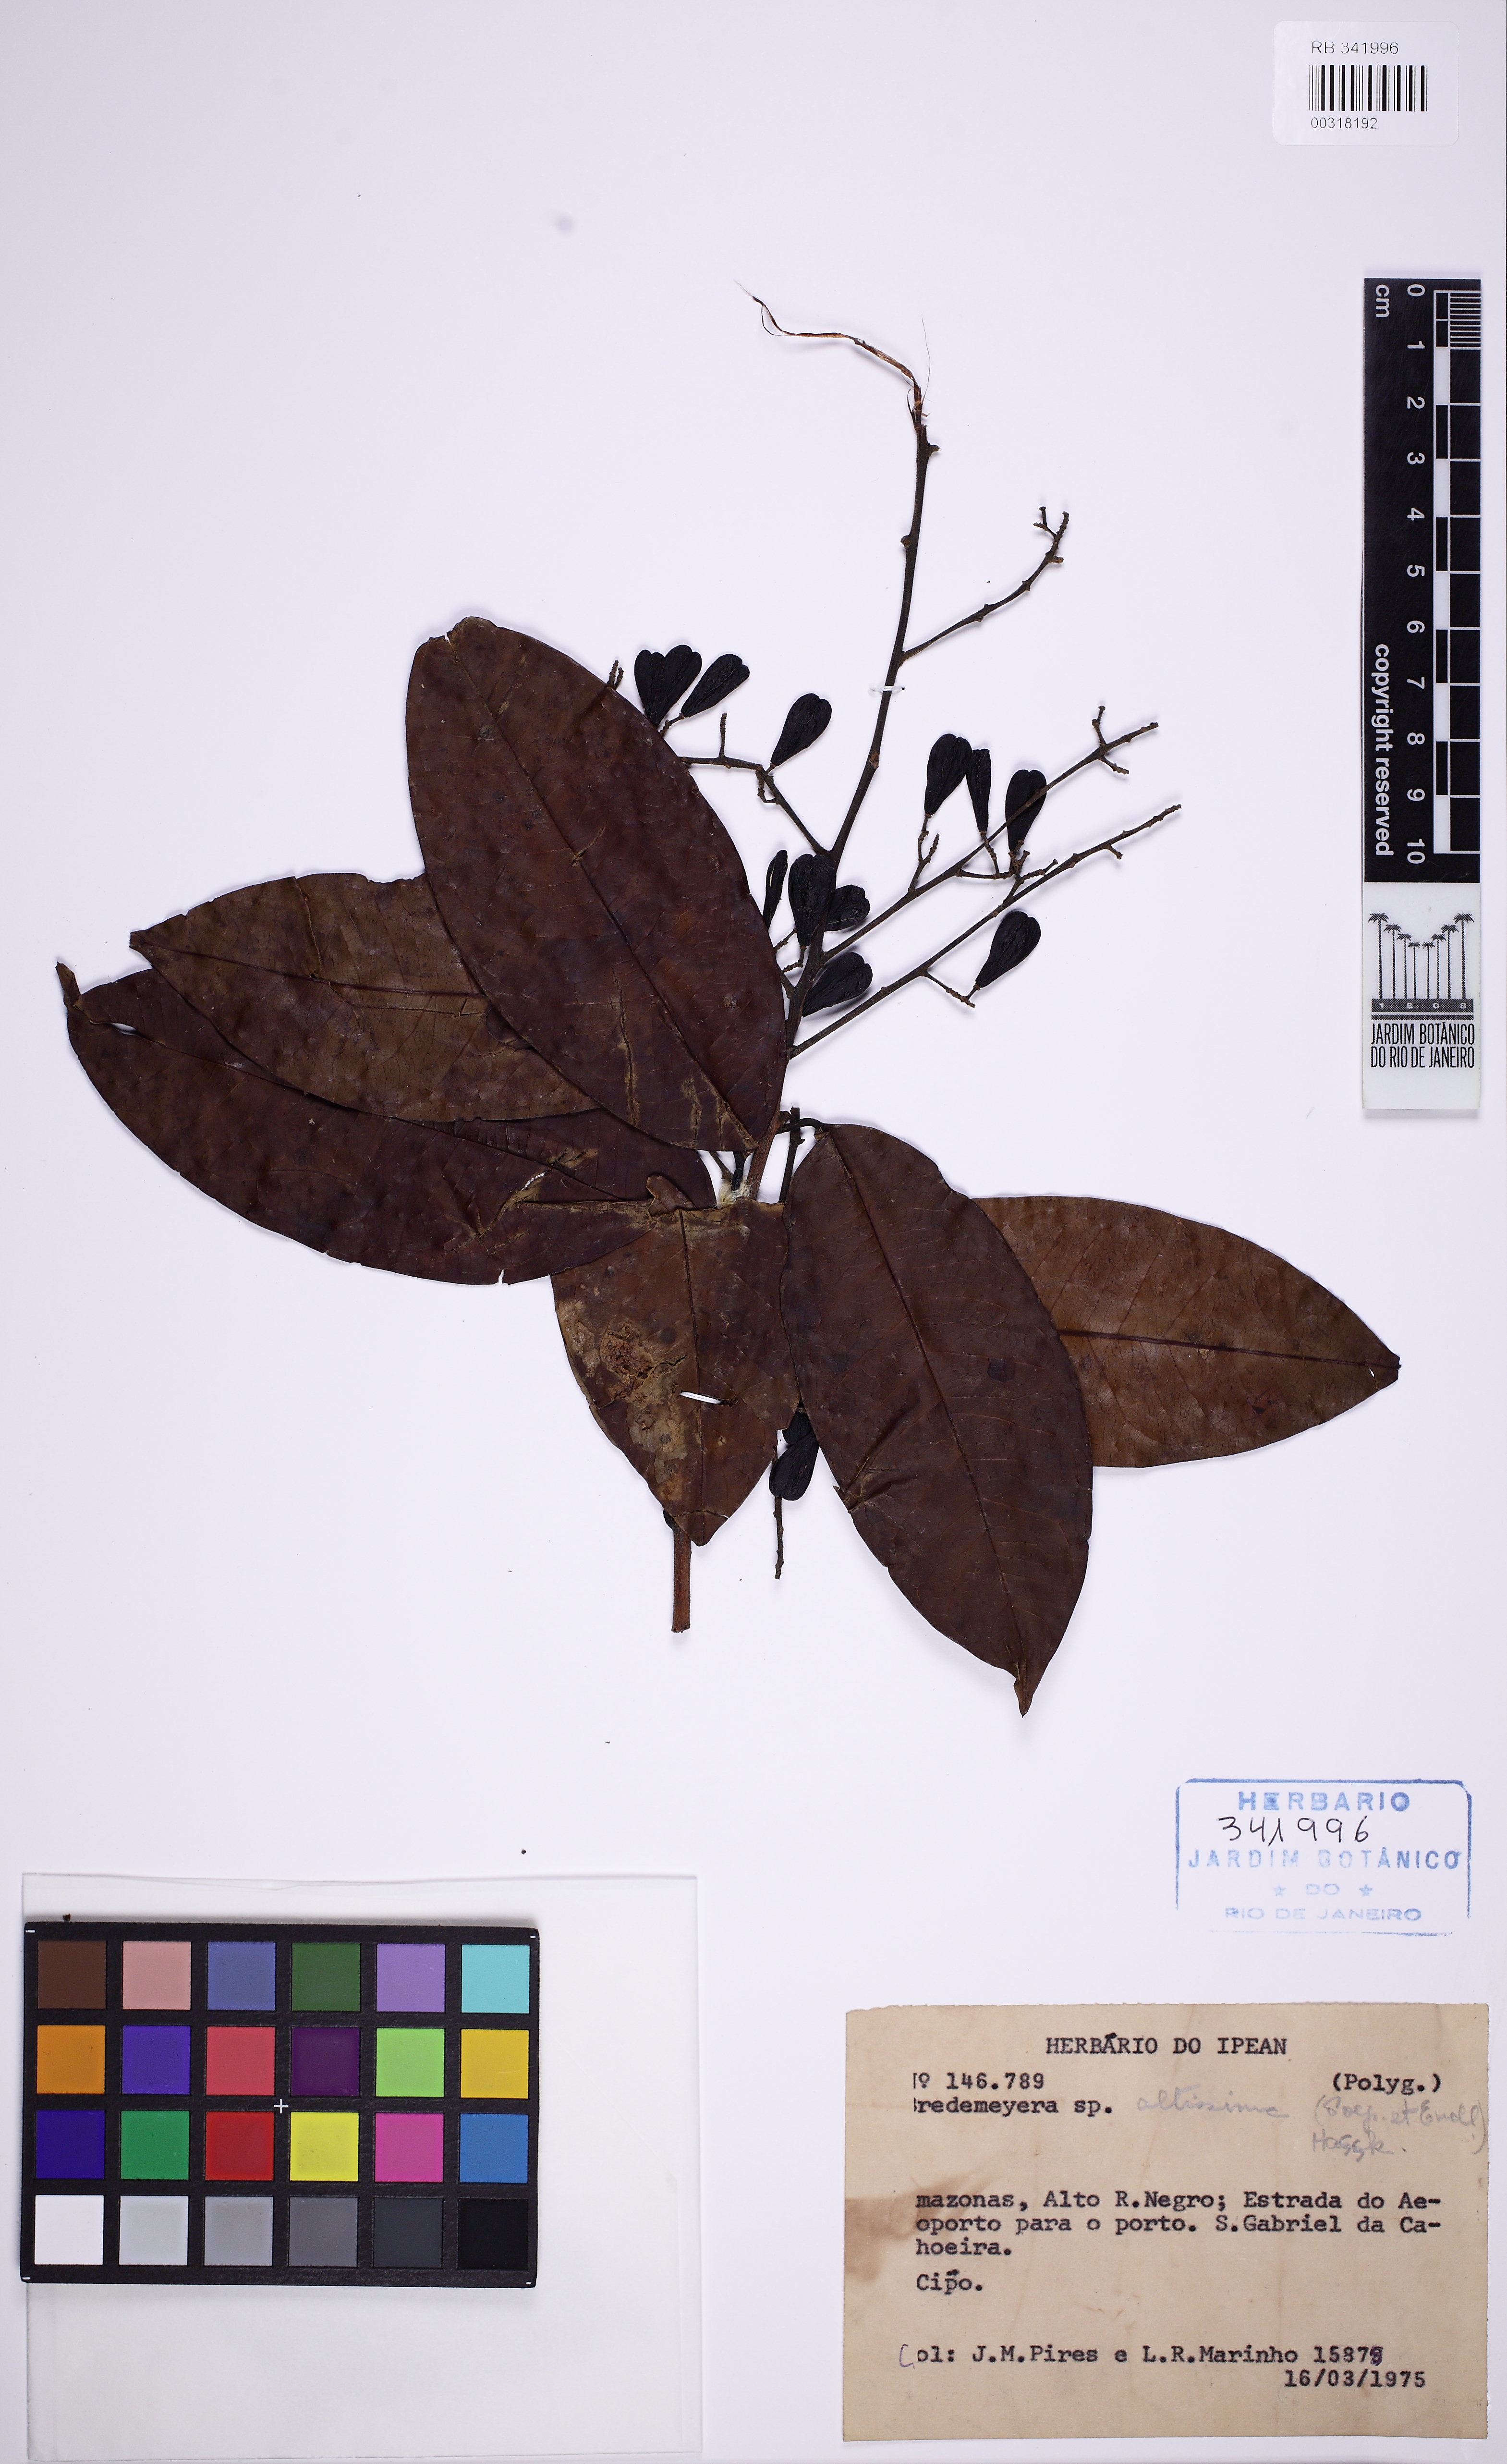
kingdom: Plantae
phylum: Tracheophyta
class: Magnoliopsida
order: Fabales
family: Polygalaceae
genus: Bredemeyera
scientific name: Bredemeyera divaricata
